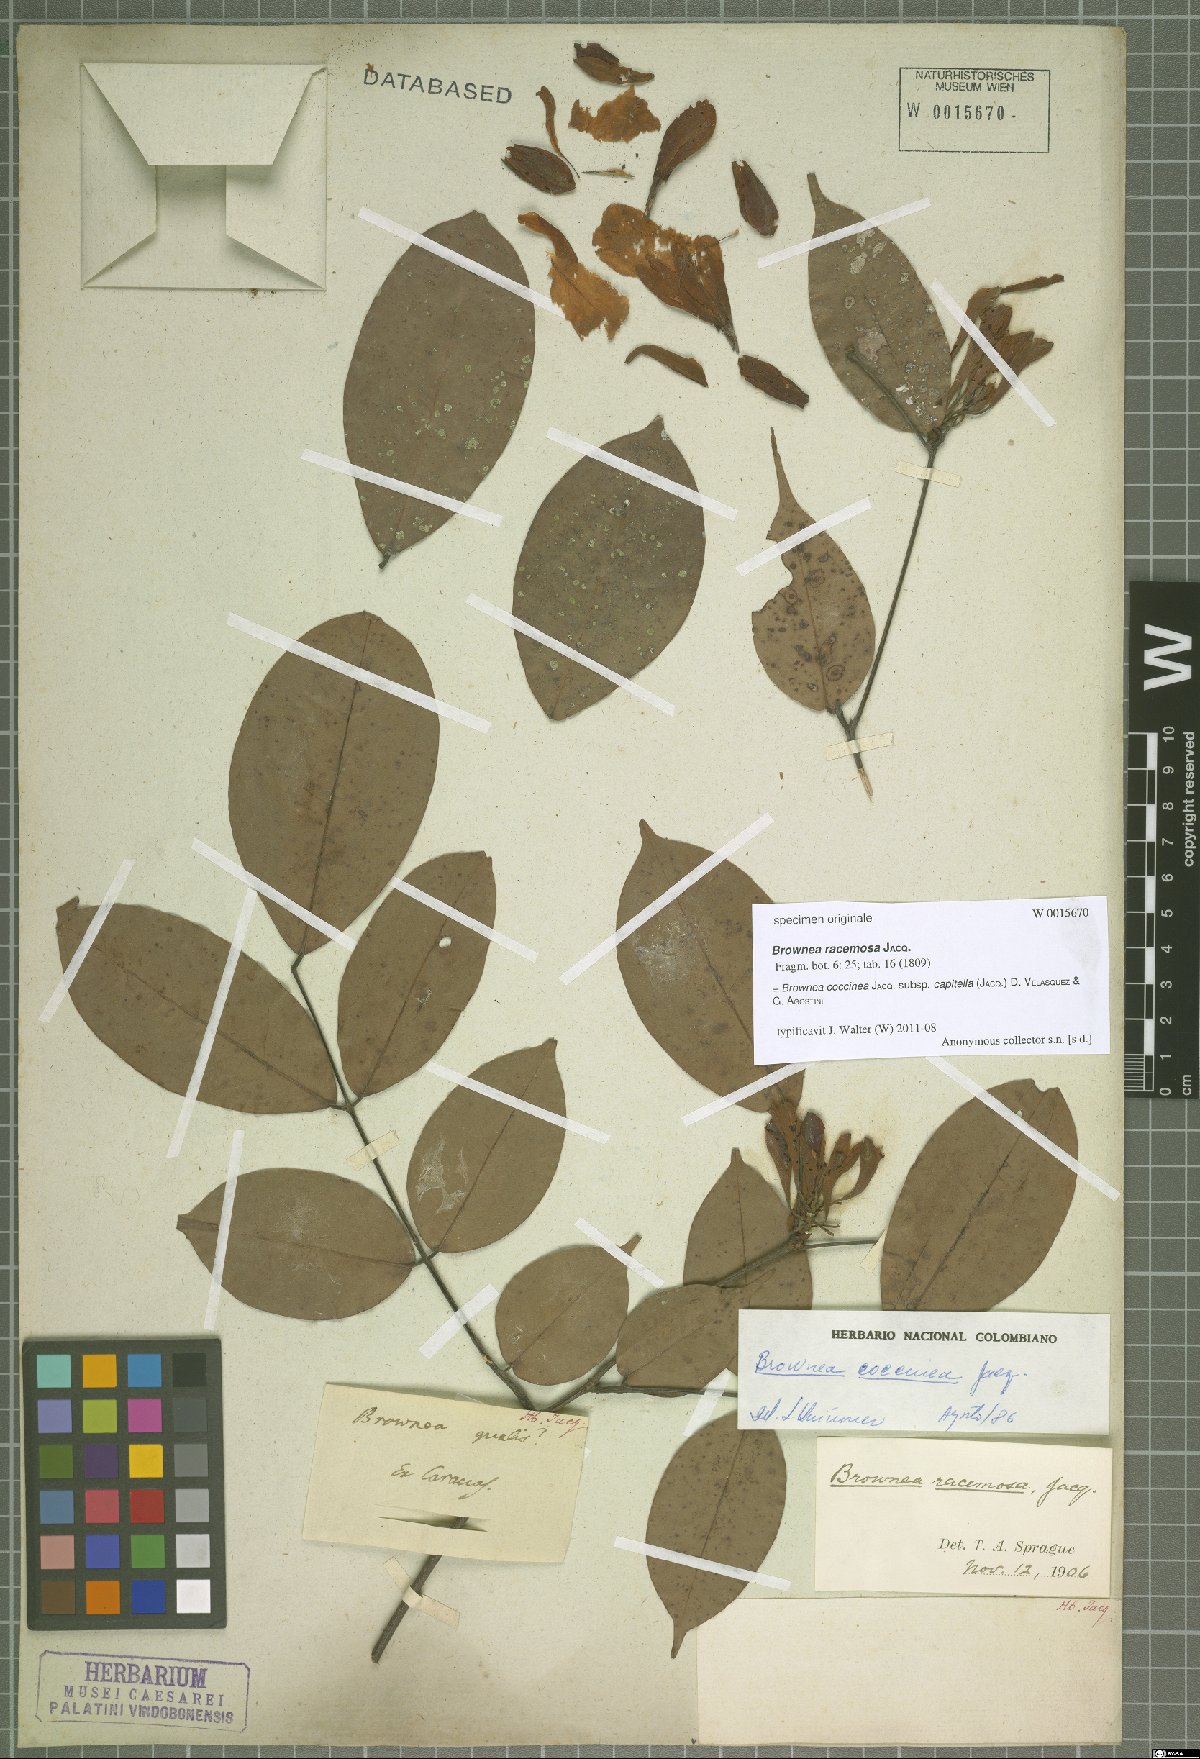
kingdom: Plantae
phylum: Tracheophyta
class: Magnoliopsida
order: Fabales
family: Fabaceae
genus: Brownea
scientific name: Brownea coccinea
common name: Scarlet flame-bean
